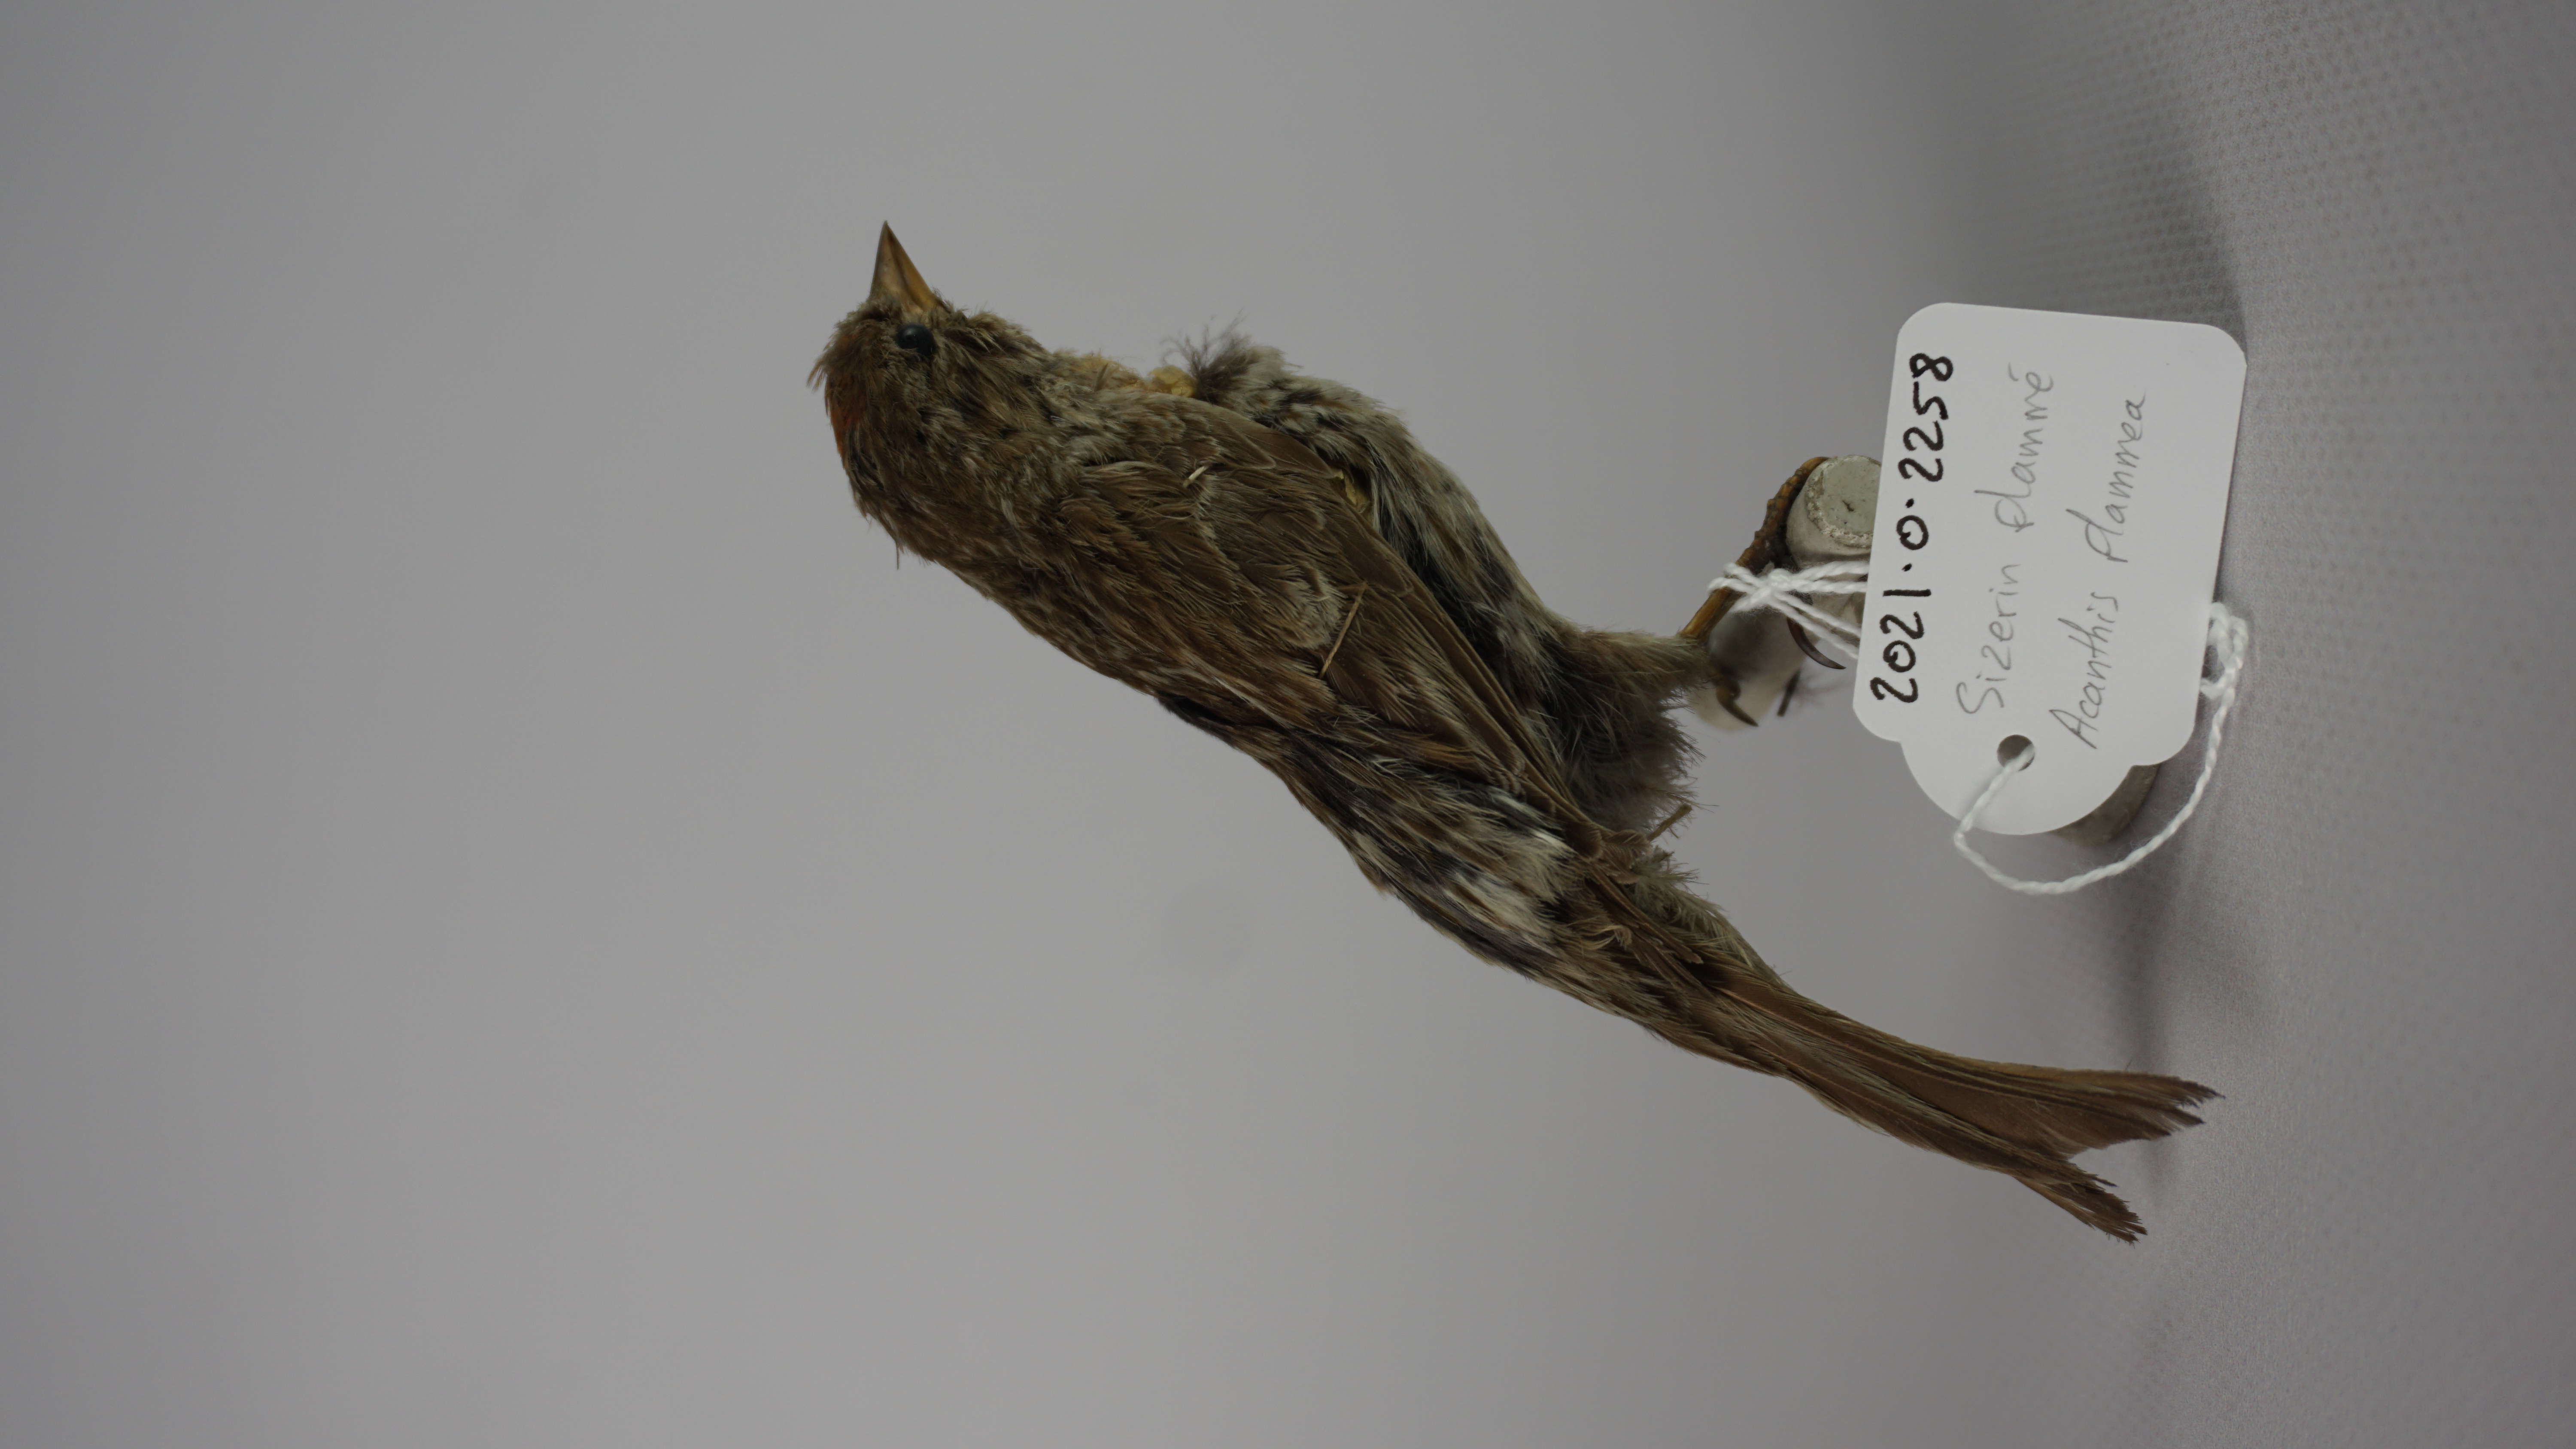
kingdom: Animalia
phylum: Chordata
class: Aves
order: Passeriformes
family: Fringillidae
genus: Acanthis
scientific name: Acanthis flammea
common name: Common redpoll
